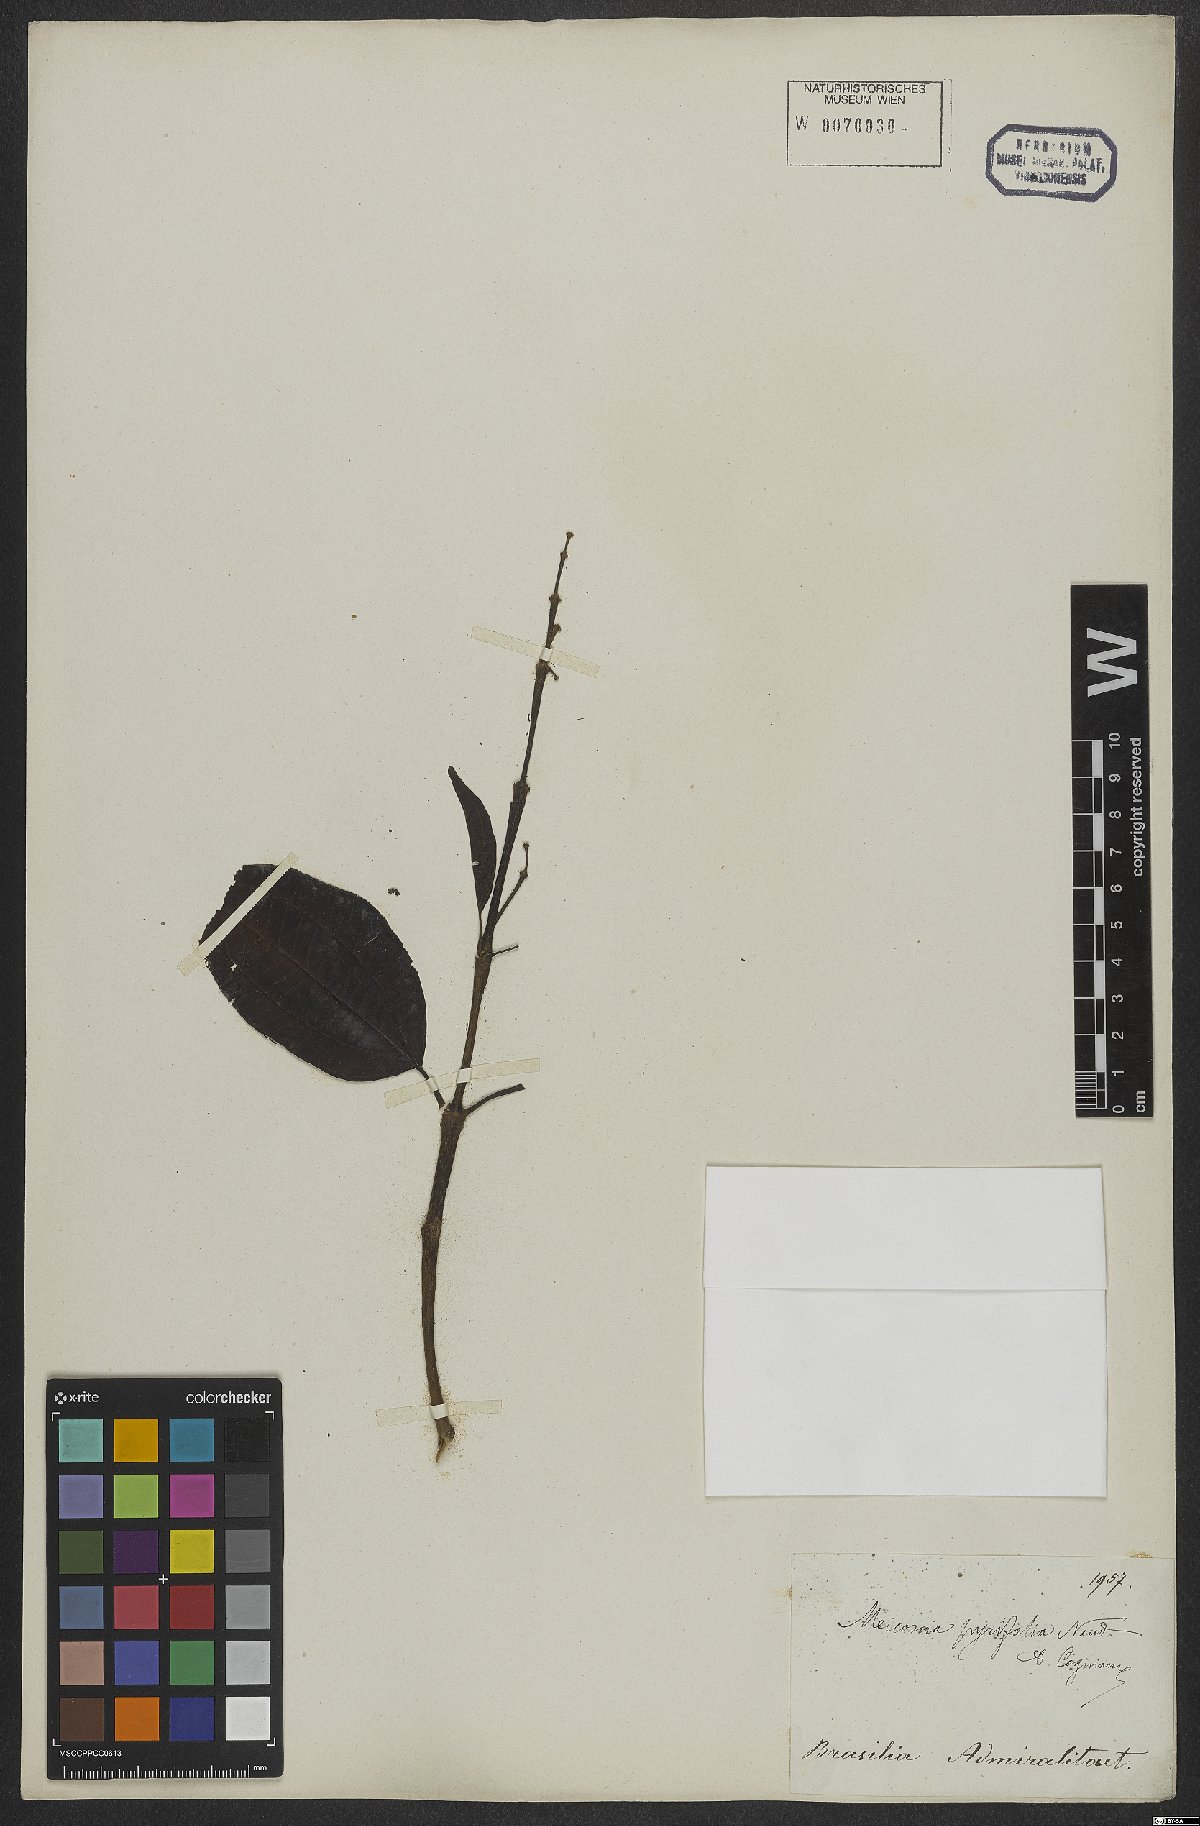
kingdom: Plantae
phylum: Tracheophyta
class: Magnoliopsida
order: Myrtales
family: Melastomataceae
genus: Miconia
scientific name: Miconia pyrifolia
